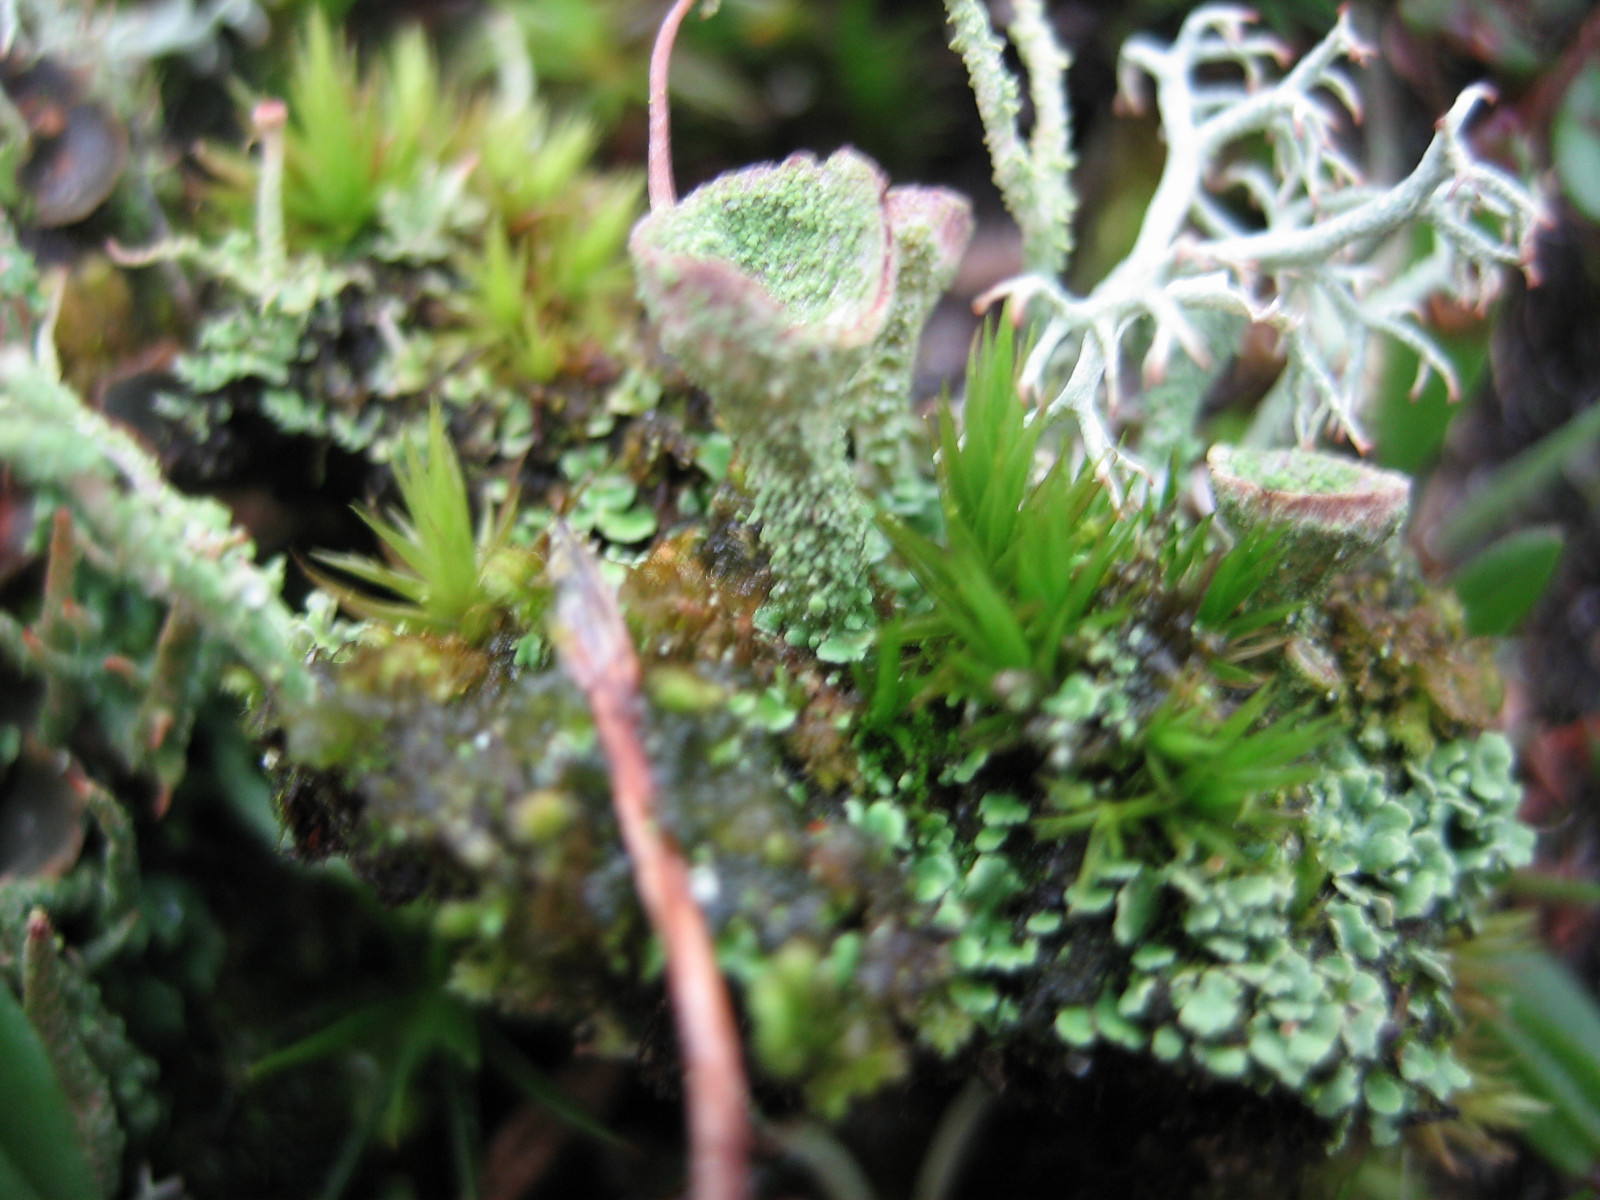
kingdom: Fungi
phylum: Ascomycota
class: Lecanoromycetes
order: Lecanorales
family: Cladoniaceae
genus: Cladonia
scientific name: Cladonia
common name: brungrøn bægerlav
